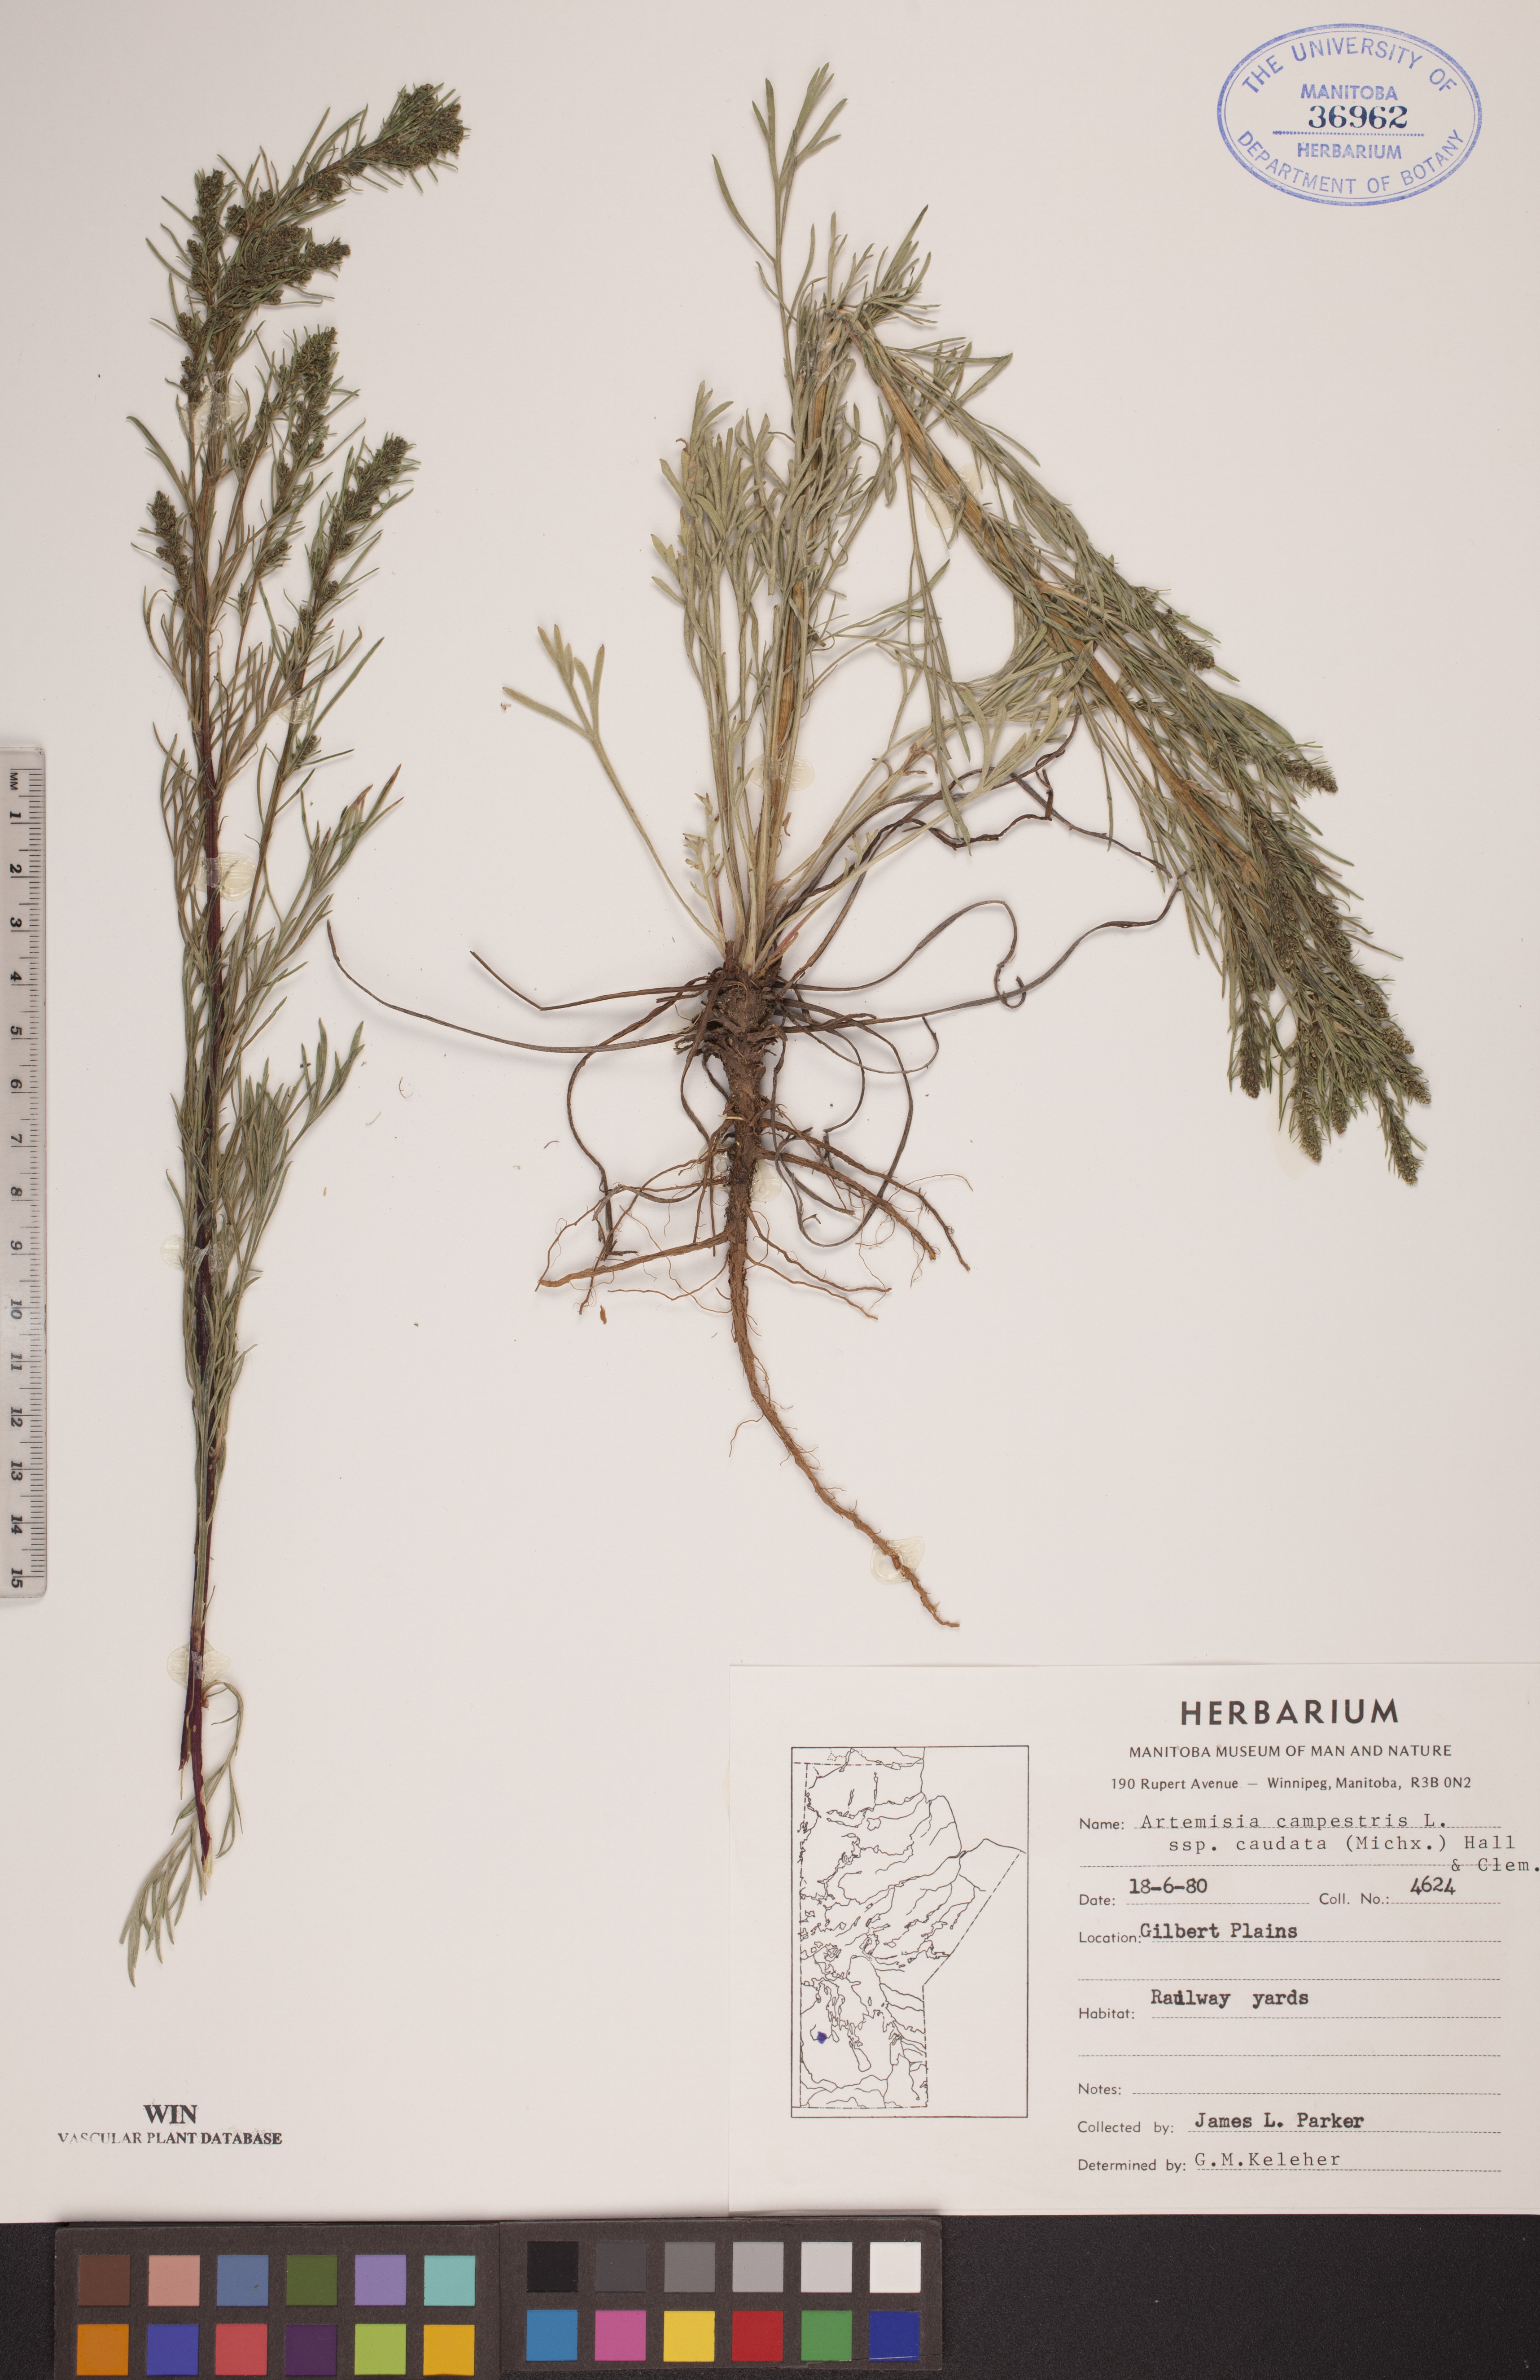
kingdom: Plantae
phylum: Tracheophyta
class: Magnoliopsida
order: Asterales
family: Asteraceae
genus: Artemisia
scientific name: Artemisia campestris
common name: Field wormwood
